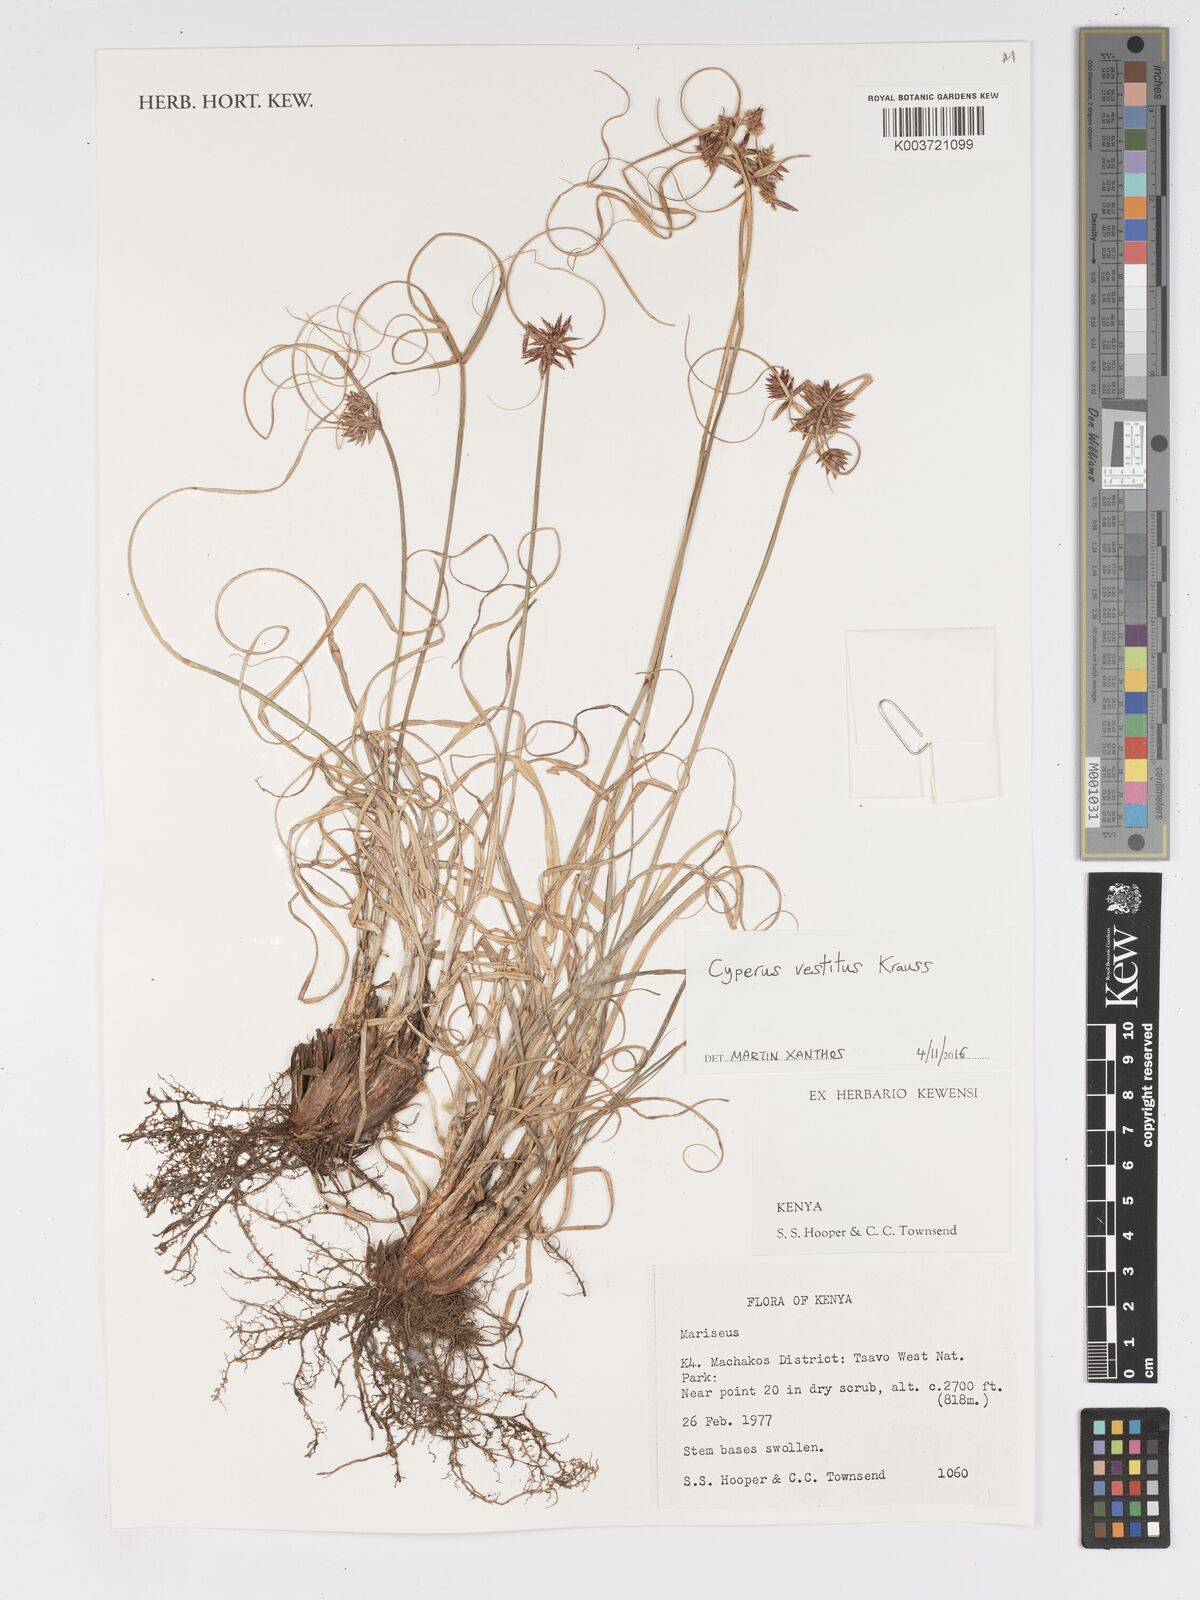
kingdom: Plantae
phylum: Tracheophyta
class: Liliopsida
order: Poales
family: Cyperaceae
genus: Cyperus
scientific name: Cyperus vestitus
